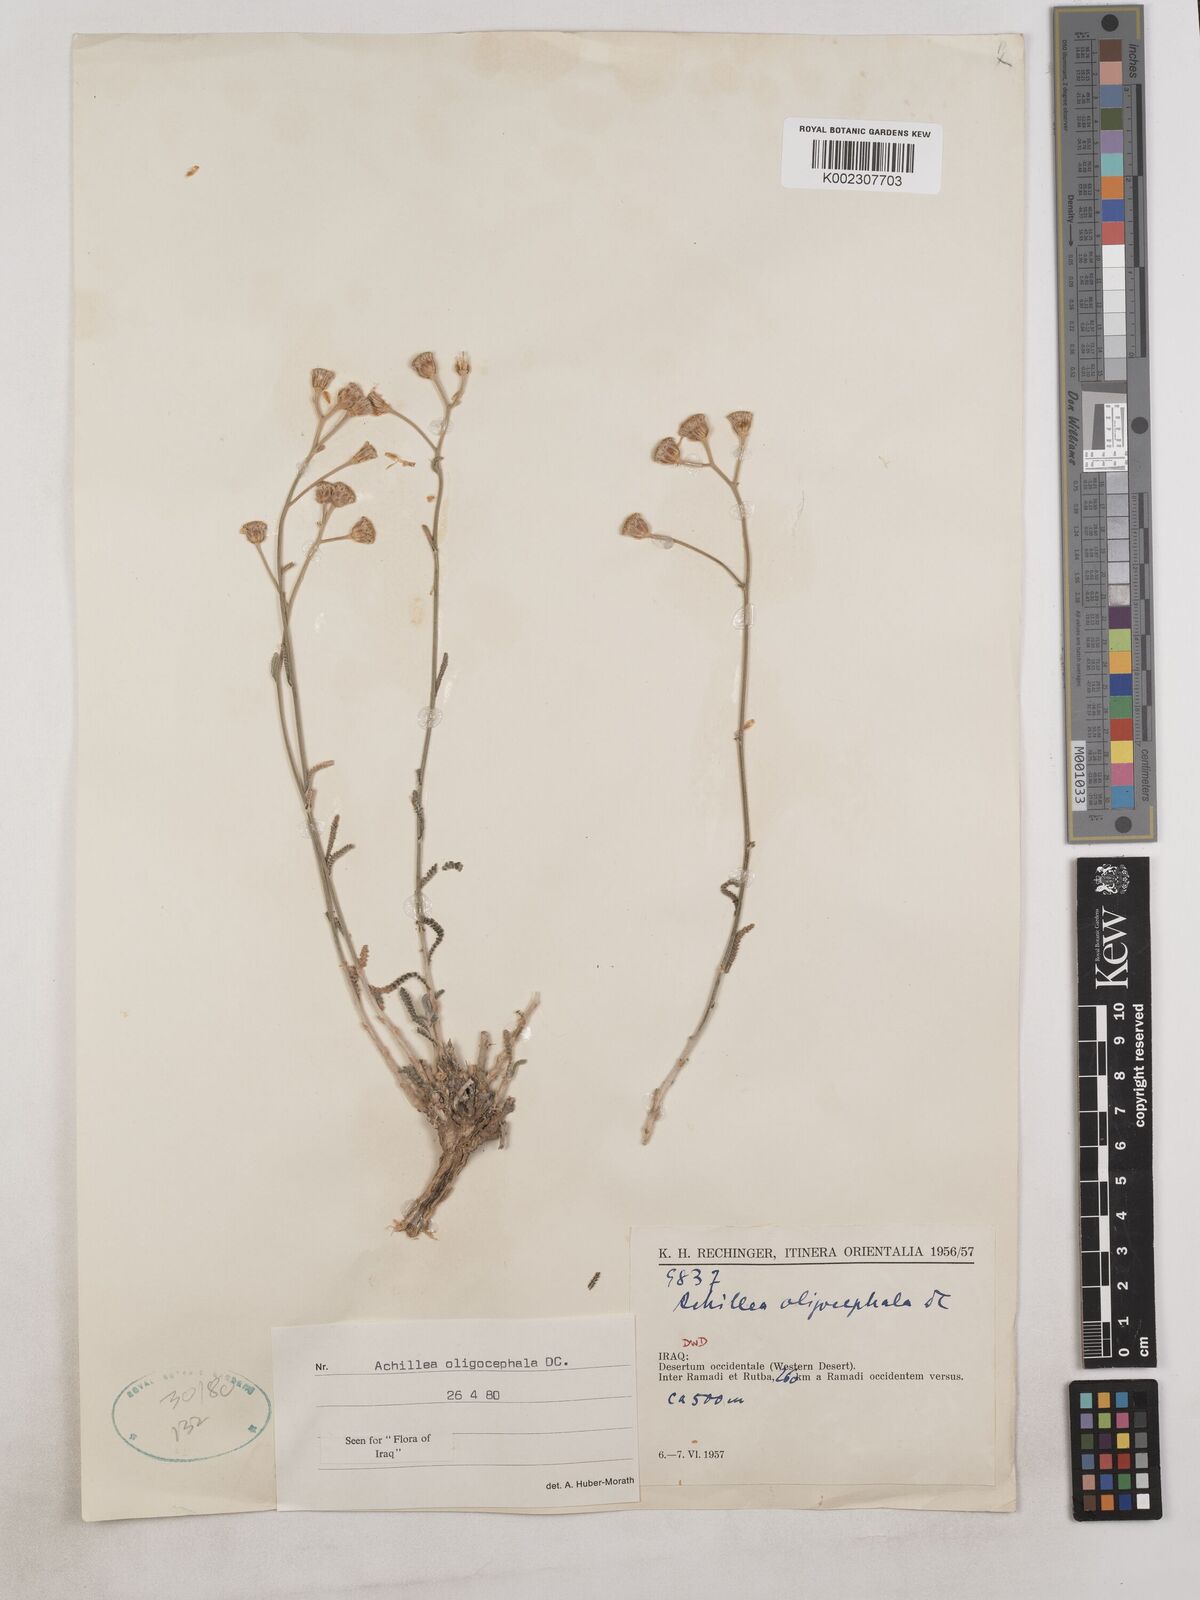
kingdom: Plantae
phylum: Tracheophyta
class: Magnoliopsida
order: Asterales
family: Asteraceae
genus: Achillea
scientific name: Achillea oligocephala
